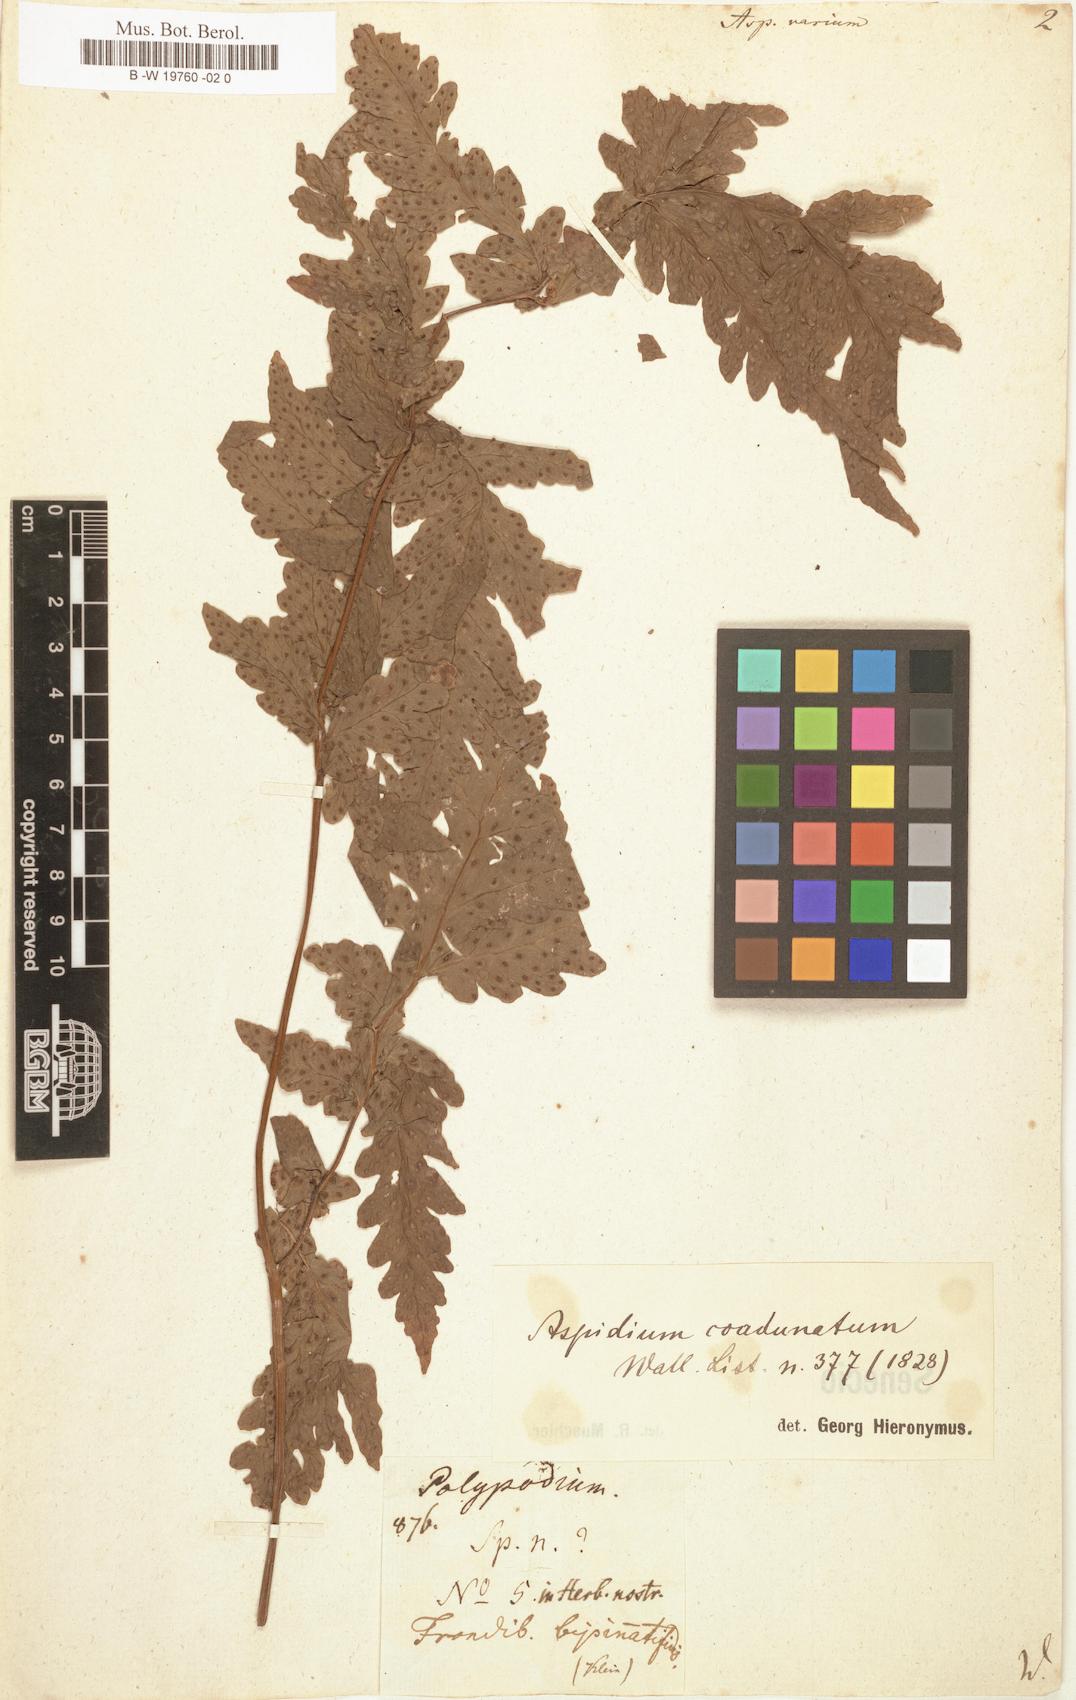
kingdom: Plantae
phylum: Tracheophyta
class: Polypodiopsida
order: Polypodiales
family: Dryopteridaceae
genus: Dryopteris
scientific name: Dryopteris varia
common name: Japanese holly fern
